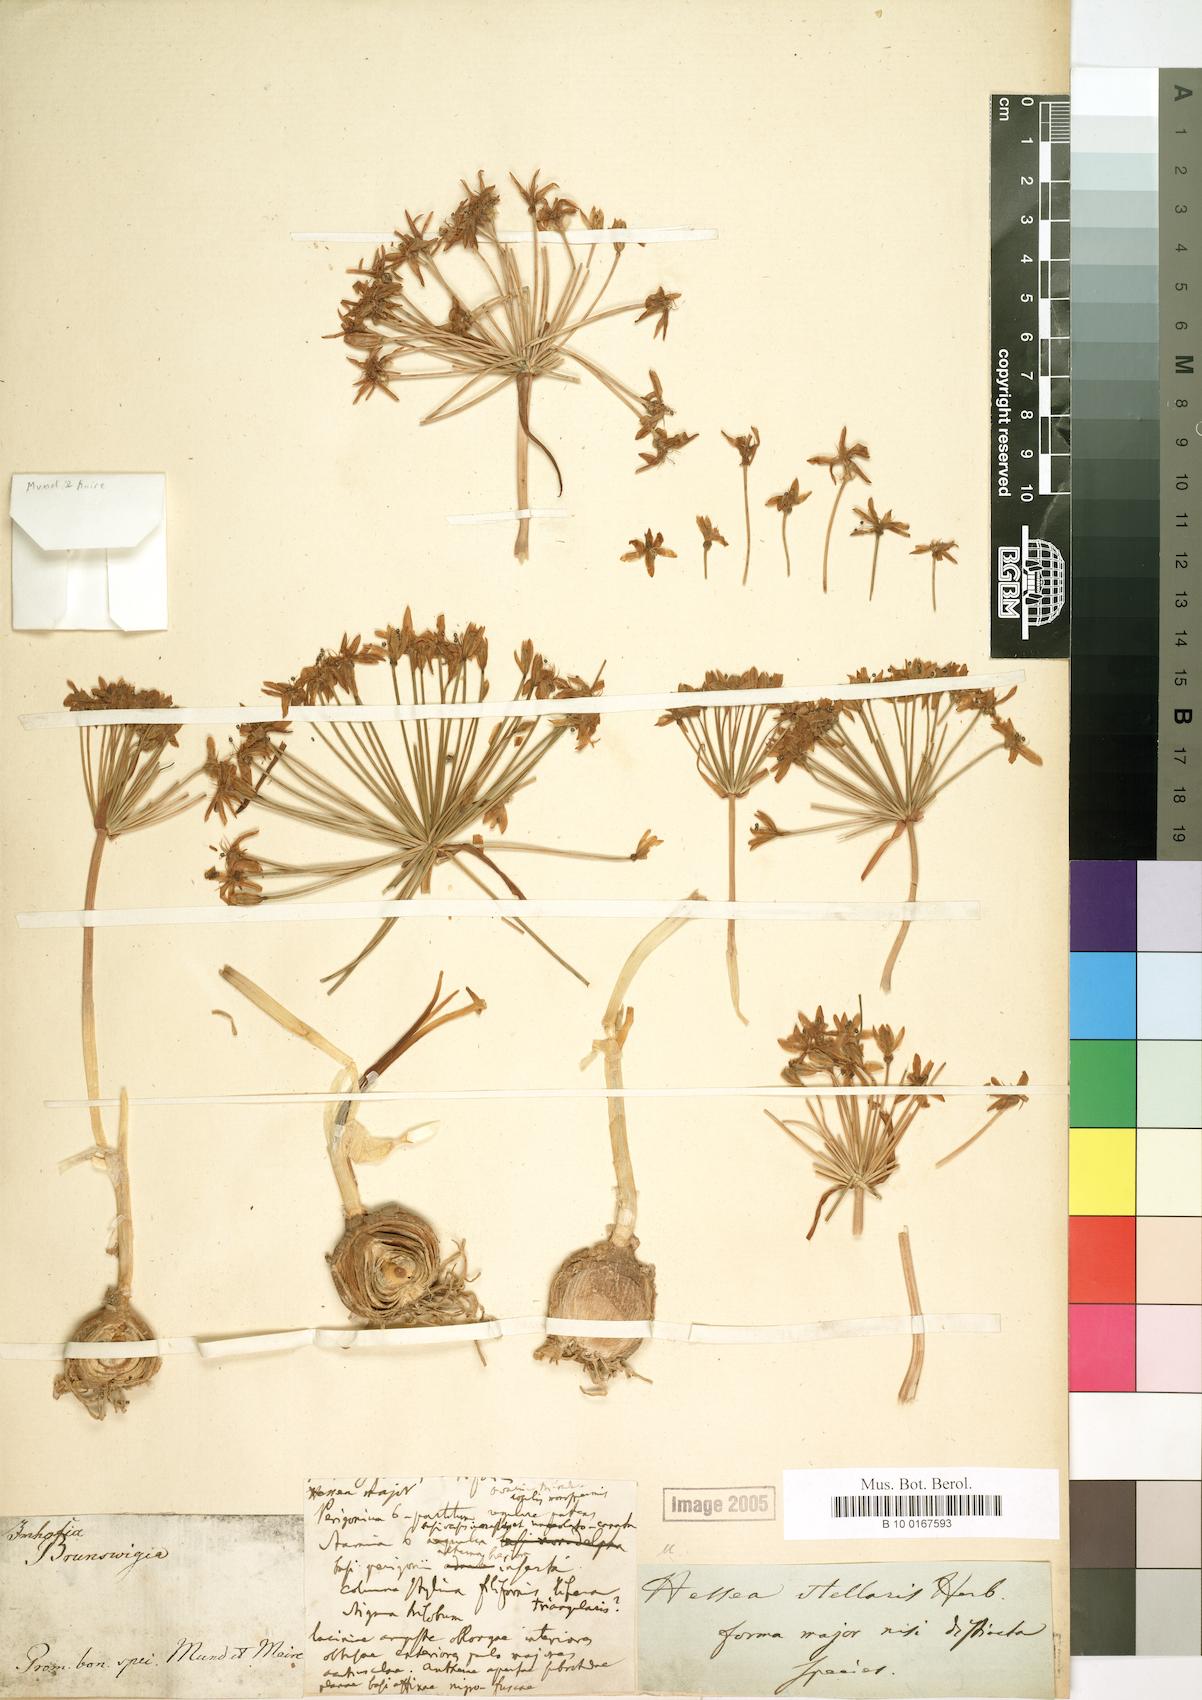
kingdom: Plantae
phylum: Tracheophyta
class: Liliopsida
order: Asparagales
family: Amaryllidaceae
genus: Hessea
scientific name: Hessea stellaris
